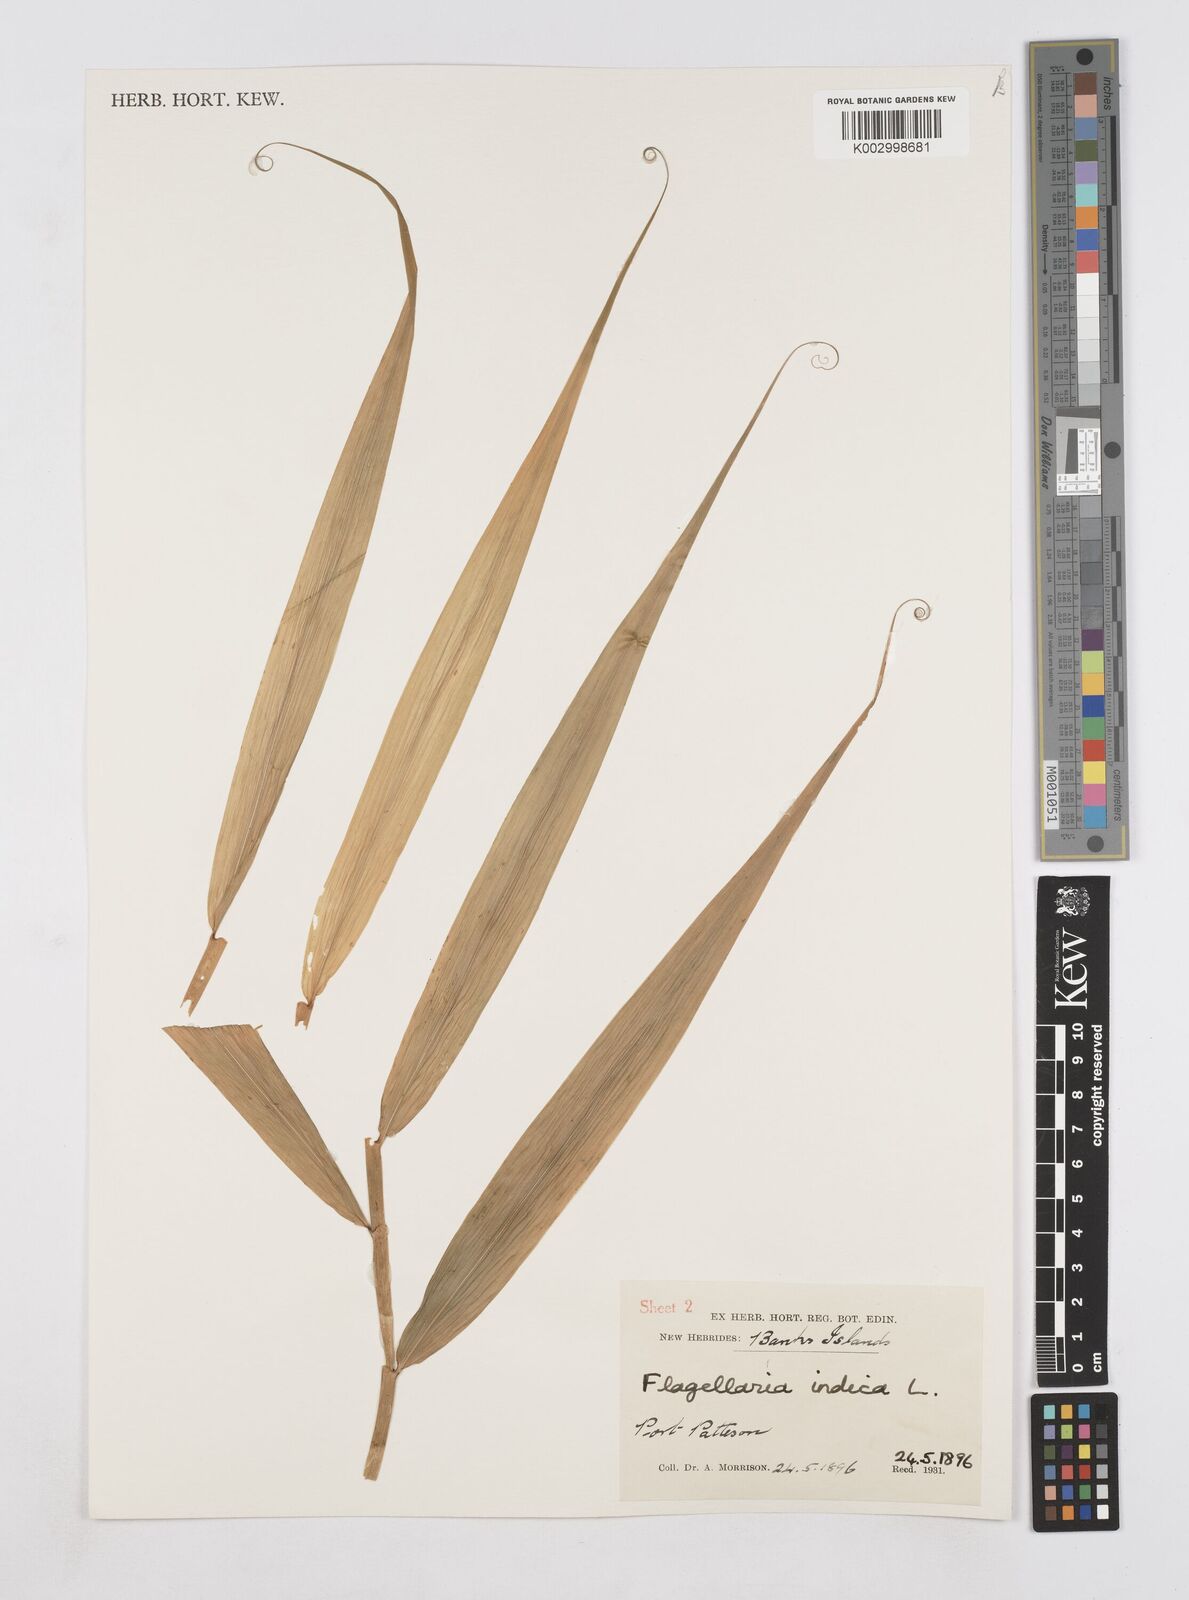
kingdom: Plantae
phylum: Tracheophyta
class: Liliopsida
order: Poales
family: Flagellariaceae
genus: Flagellaria
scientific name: Flagellaria indica
